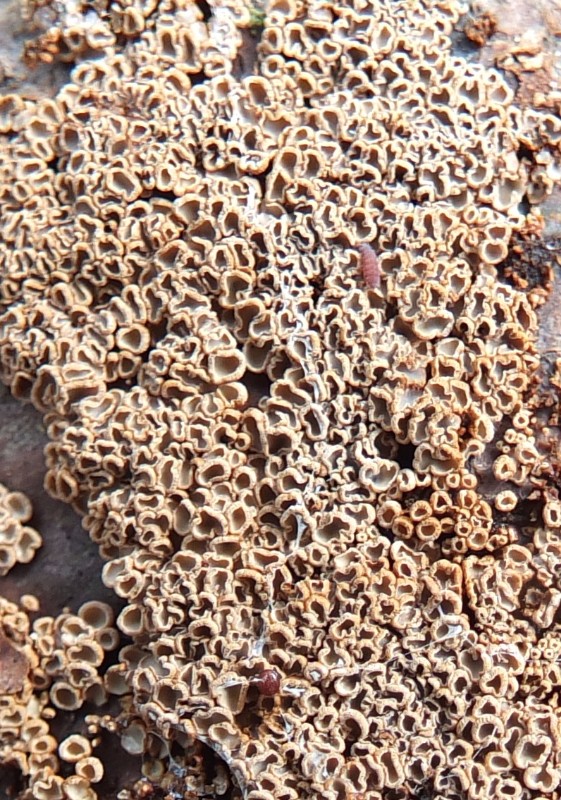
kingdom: Fungi
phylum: Basidiomycota
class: Agaricomycetes
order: Agaricales
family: Niaceae
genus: Merismodes
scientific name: Merismodes anomala
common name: almindelig læderskål
